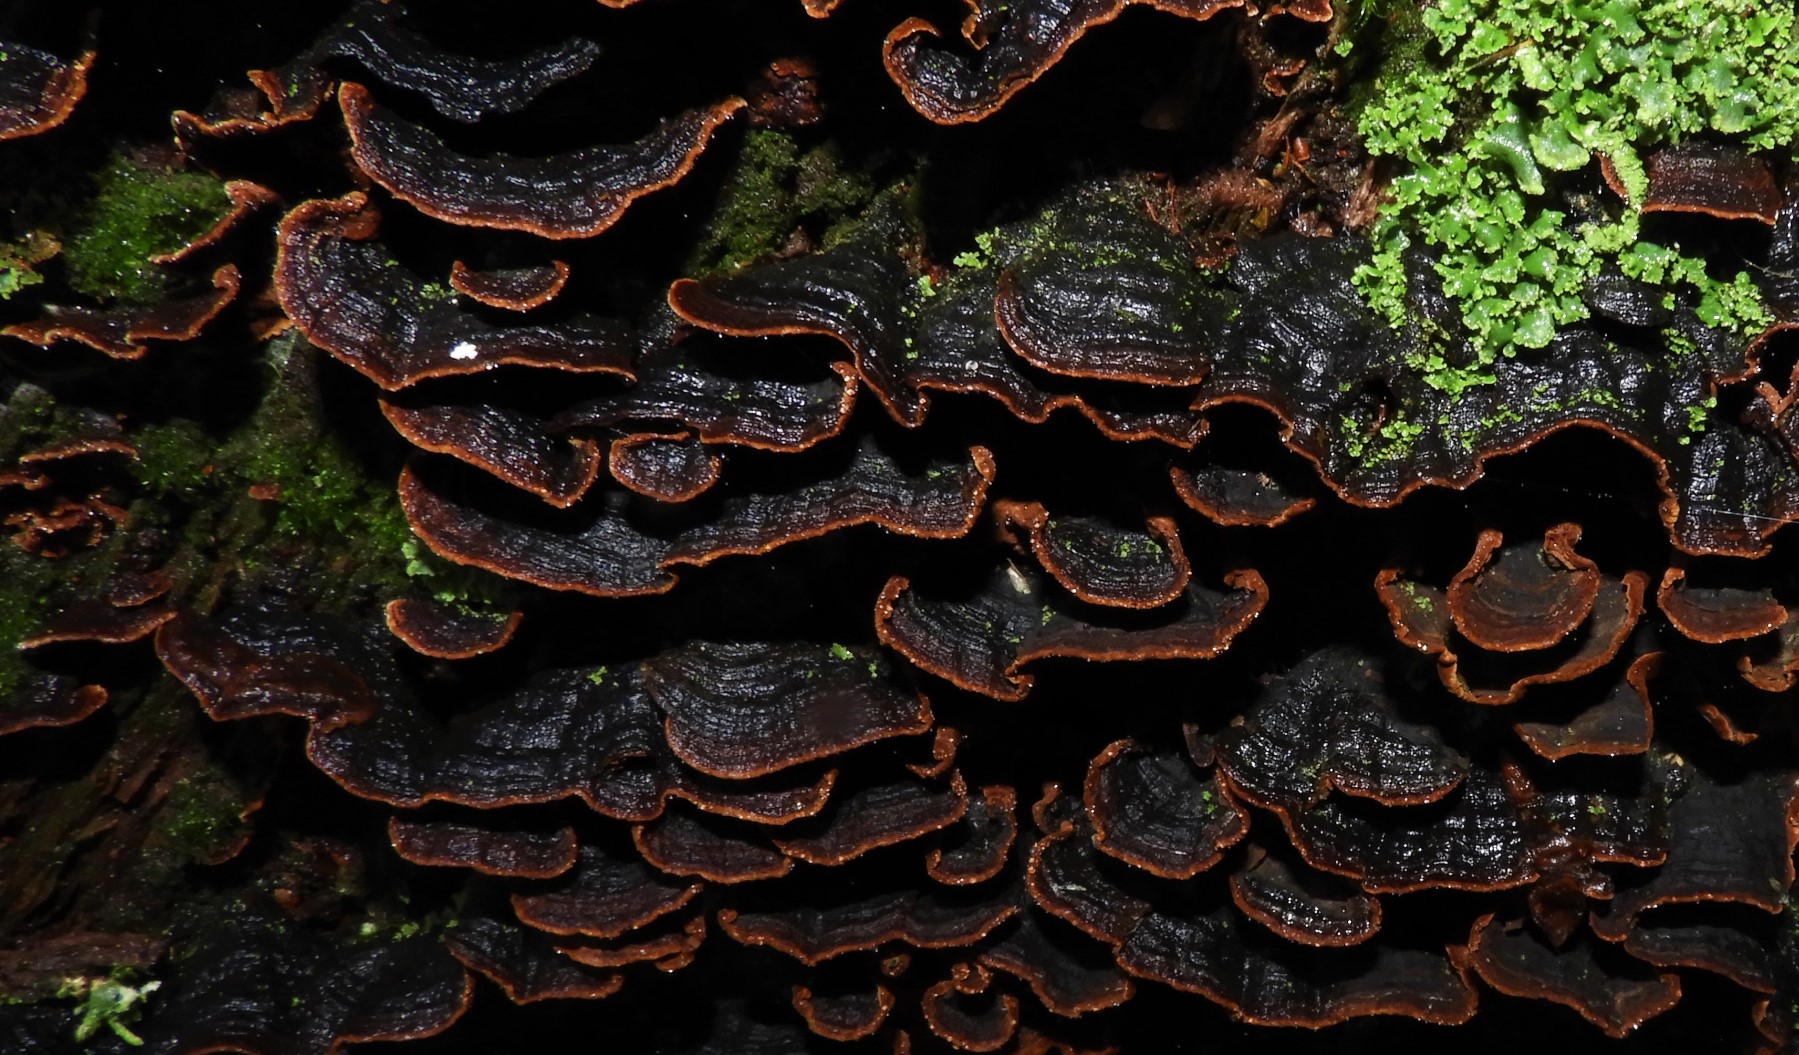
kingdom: Fungi
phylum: Basidiomycota
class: Agaricomycetes
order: Hymenochaetales
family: Hymenochaetaceae
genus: Hymenochaete
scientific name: Hymenochaete rubiginosa
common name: stiv ruslædersvamp
